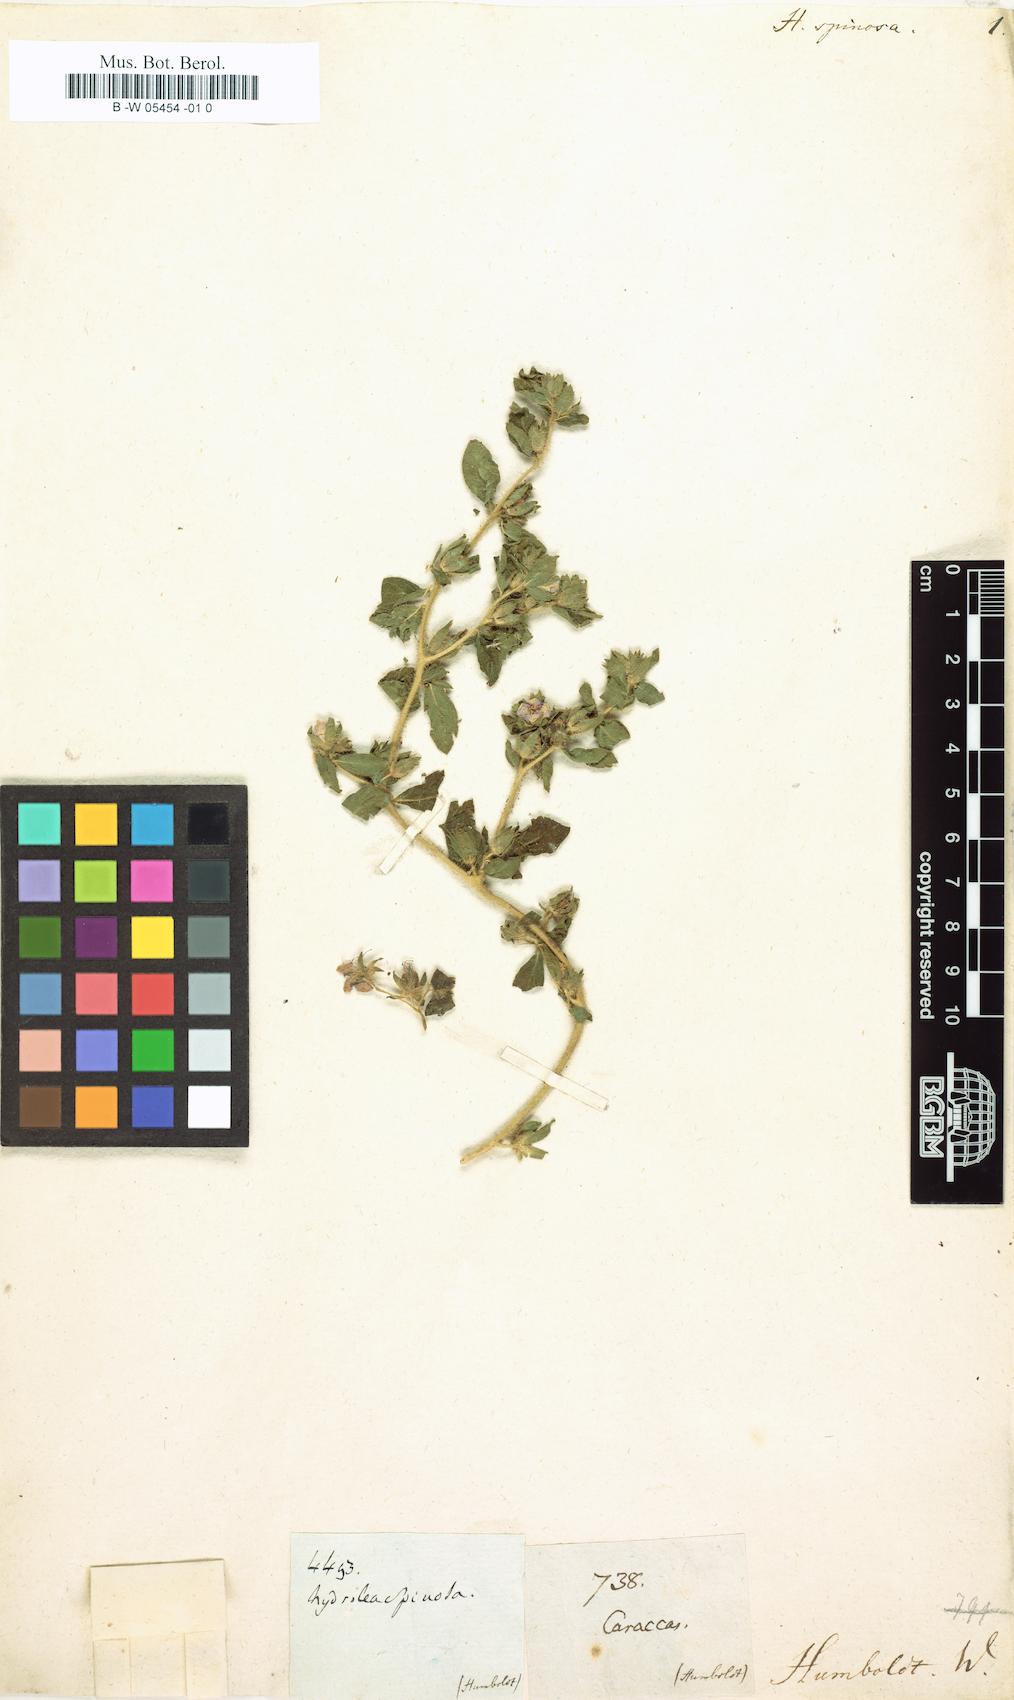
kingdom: Plantae
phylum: Tracheophyta
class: Magnoliopsida
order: Solanales
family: Hydroleaceae
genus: Hydrolea
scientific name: Hydrolea spinosa
